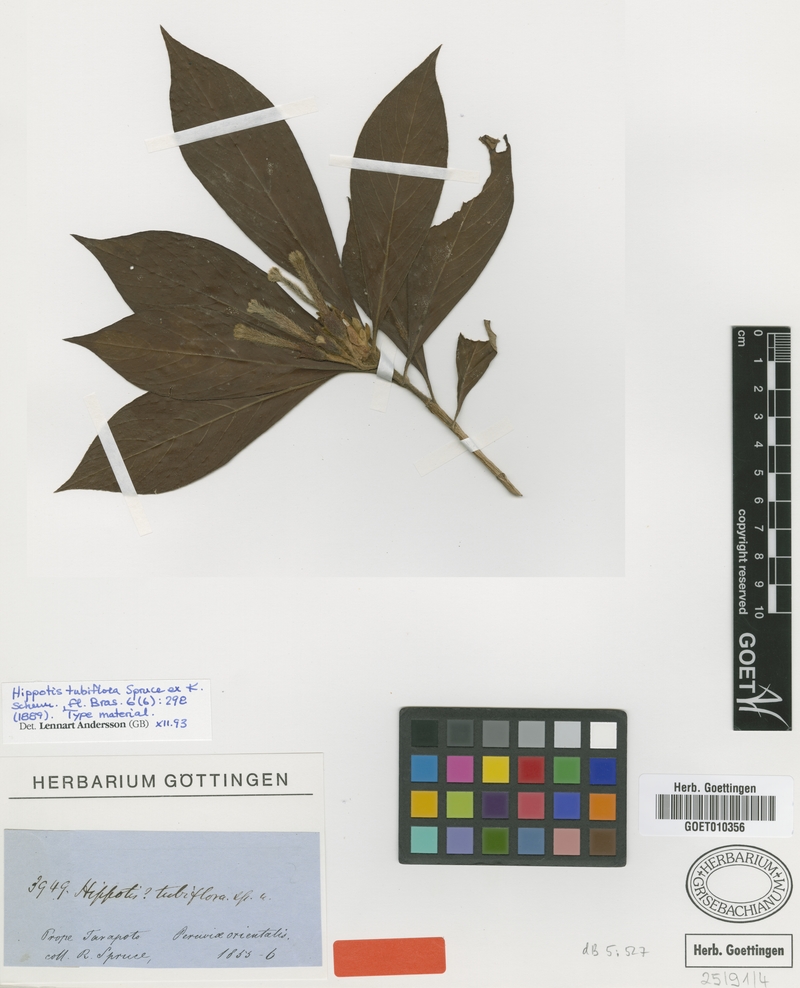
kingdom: Plantae
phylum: Tracheophyta
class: Magnoliopsida
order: Gentianales
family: Rubiaceae
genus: Hippotis
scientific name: Hippotis tubiflora
